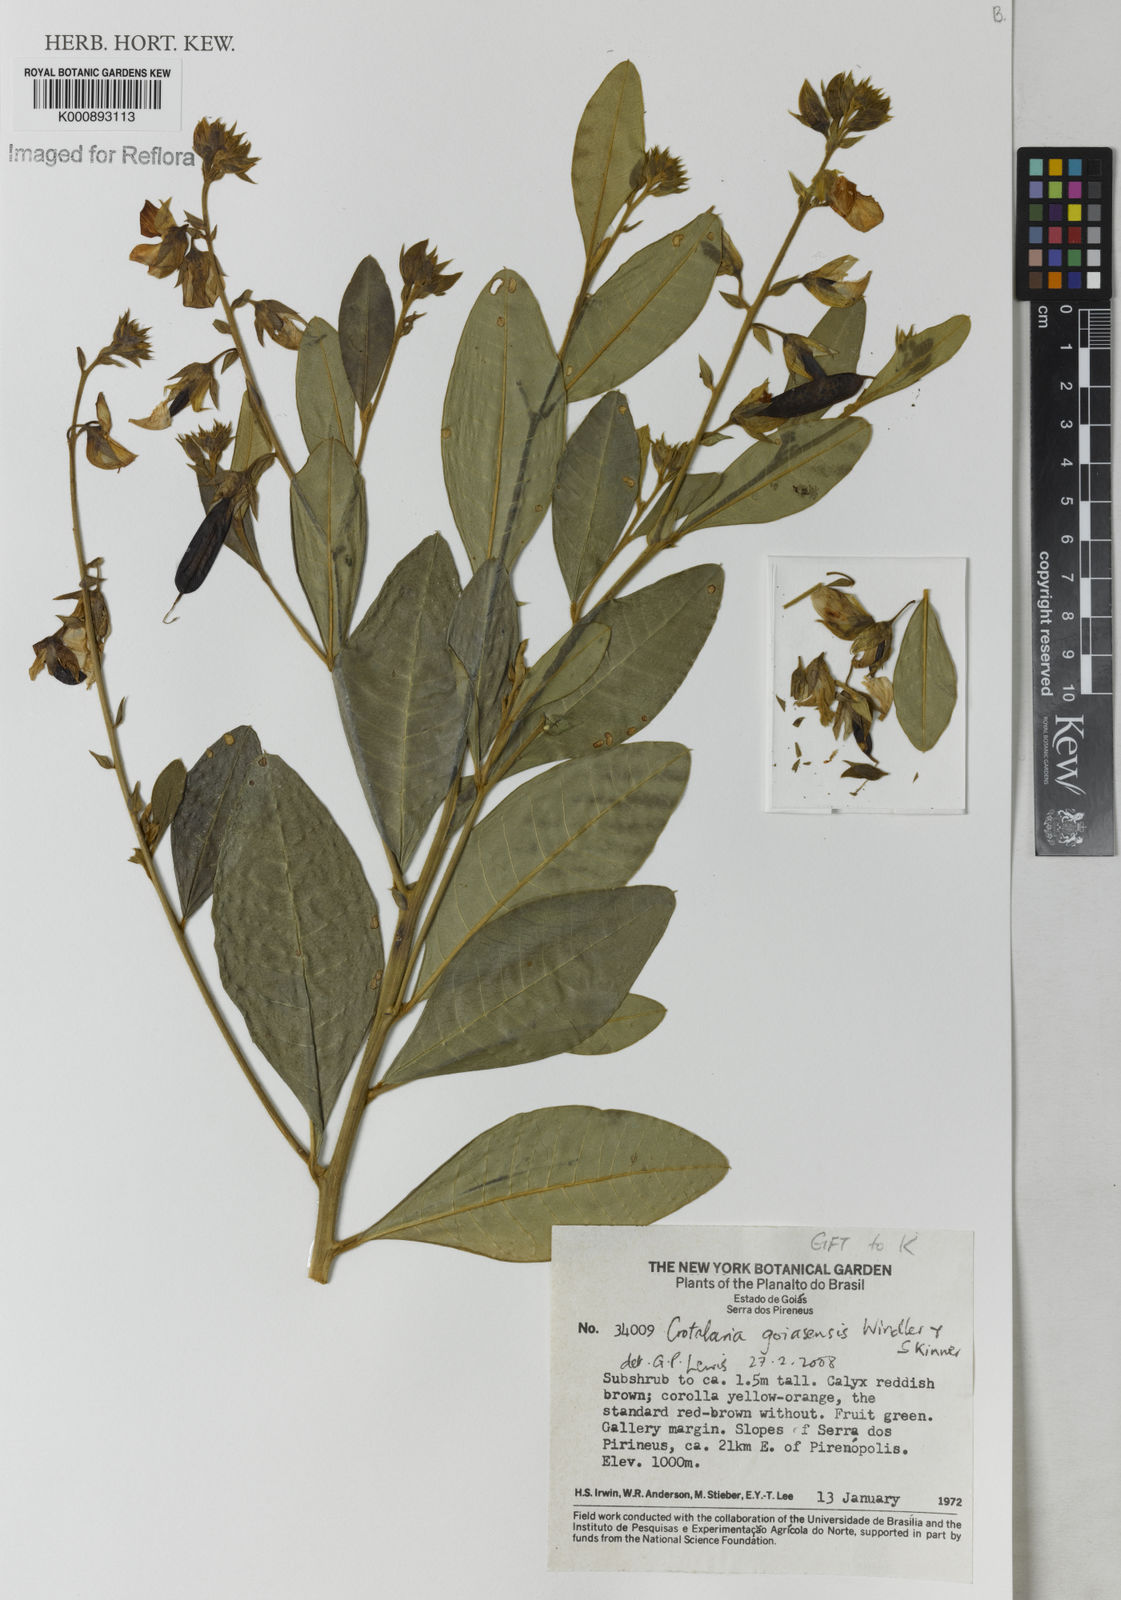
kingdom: Plantae
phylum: Tracheophyta
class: Magnoliopsida
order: Fabales
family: Fabaceae
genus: Crotalaria
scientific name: Crotalaria goiasensis
